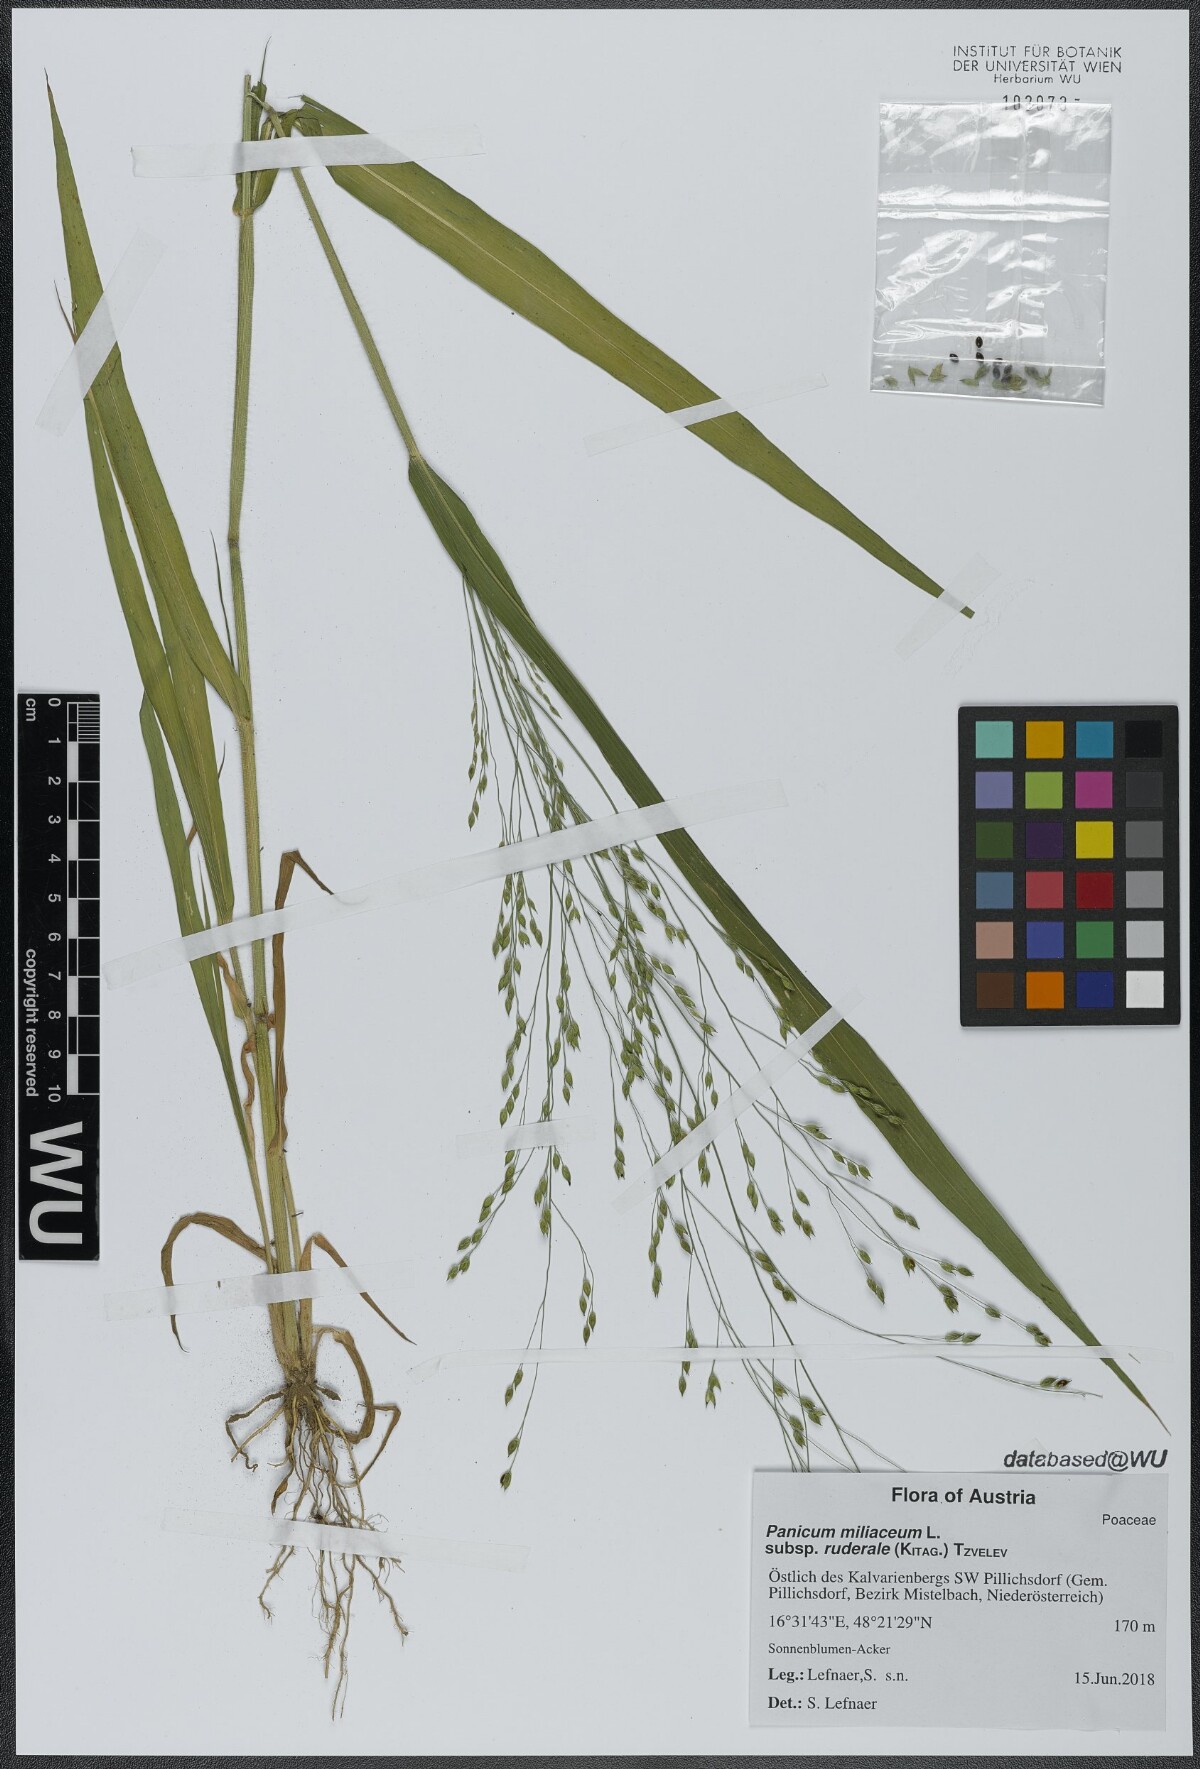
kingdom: Plantae
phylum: Tracheophyta
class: Liliopsida
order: Poales
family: Poaceae
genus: Panicum
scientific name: Panicum miliaceum
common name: Common millet
